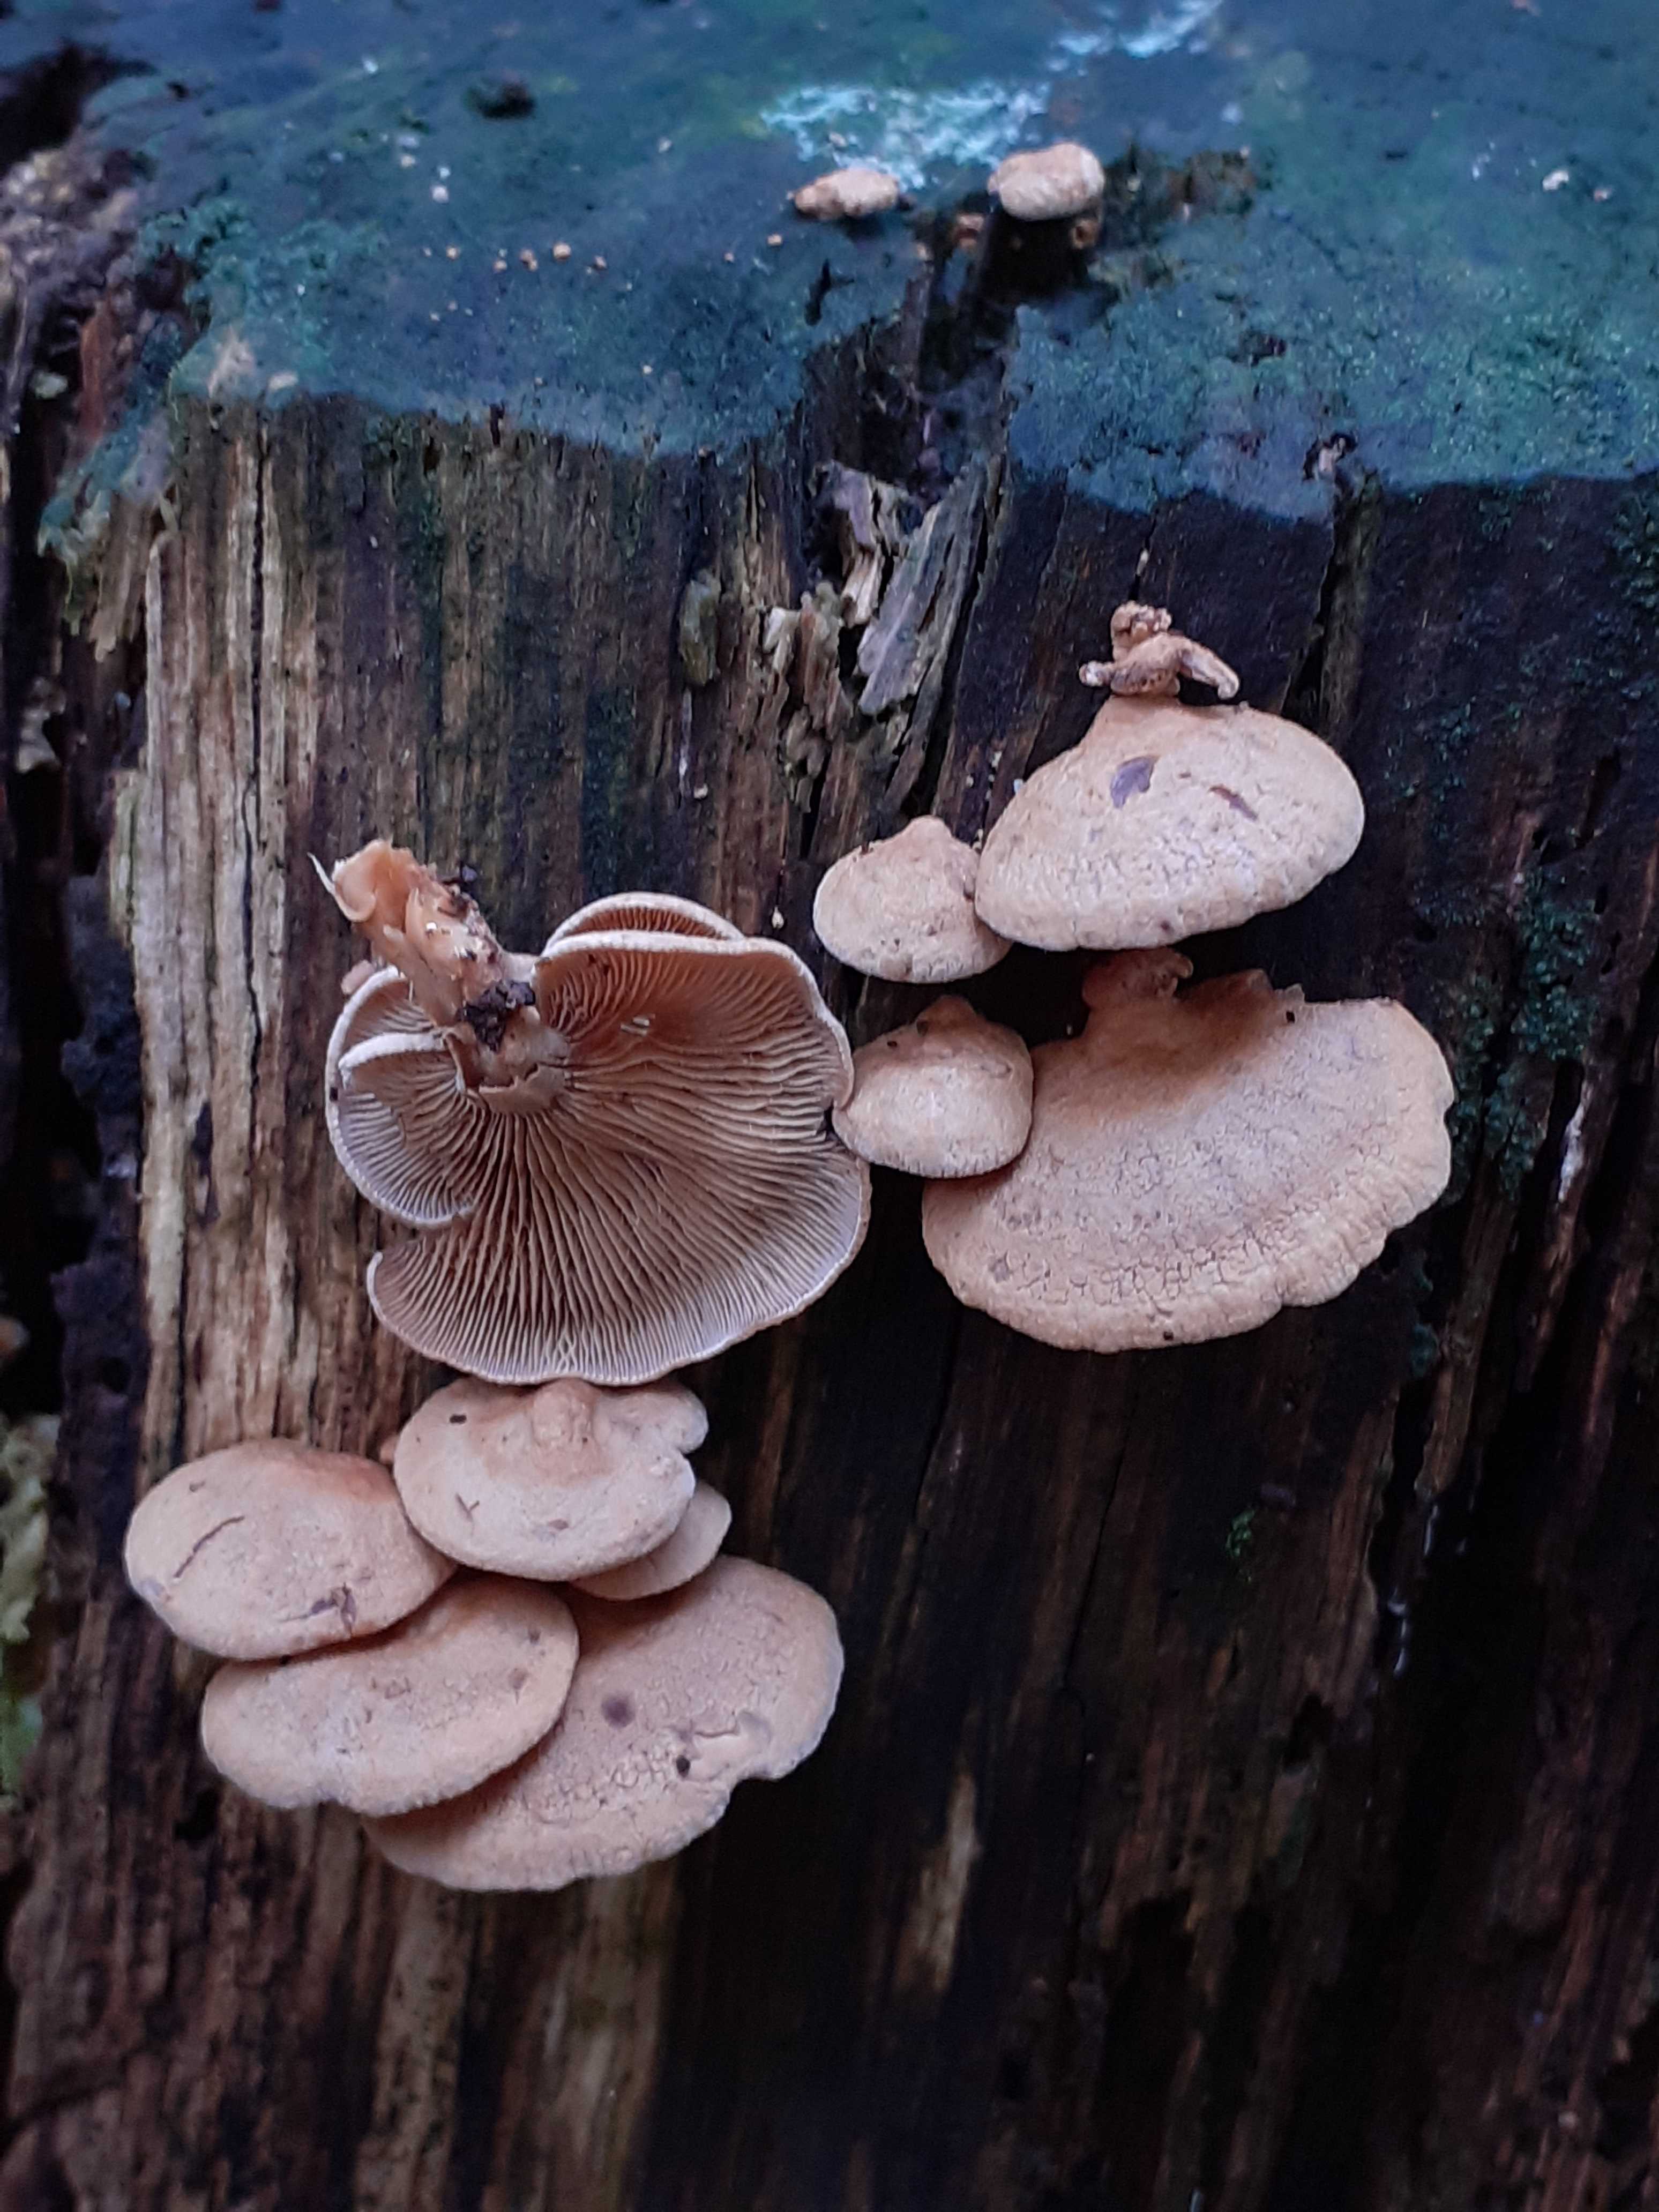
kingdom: Fungi
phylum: Basidiomycota
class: Agaricomycetes
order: Agaricales
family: Mycenaceae
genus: Panellus
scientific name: Panellus stipticus
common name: kliddet epaulethat
